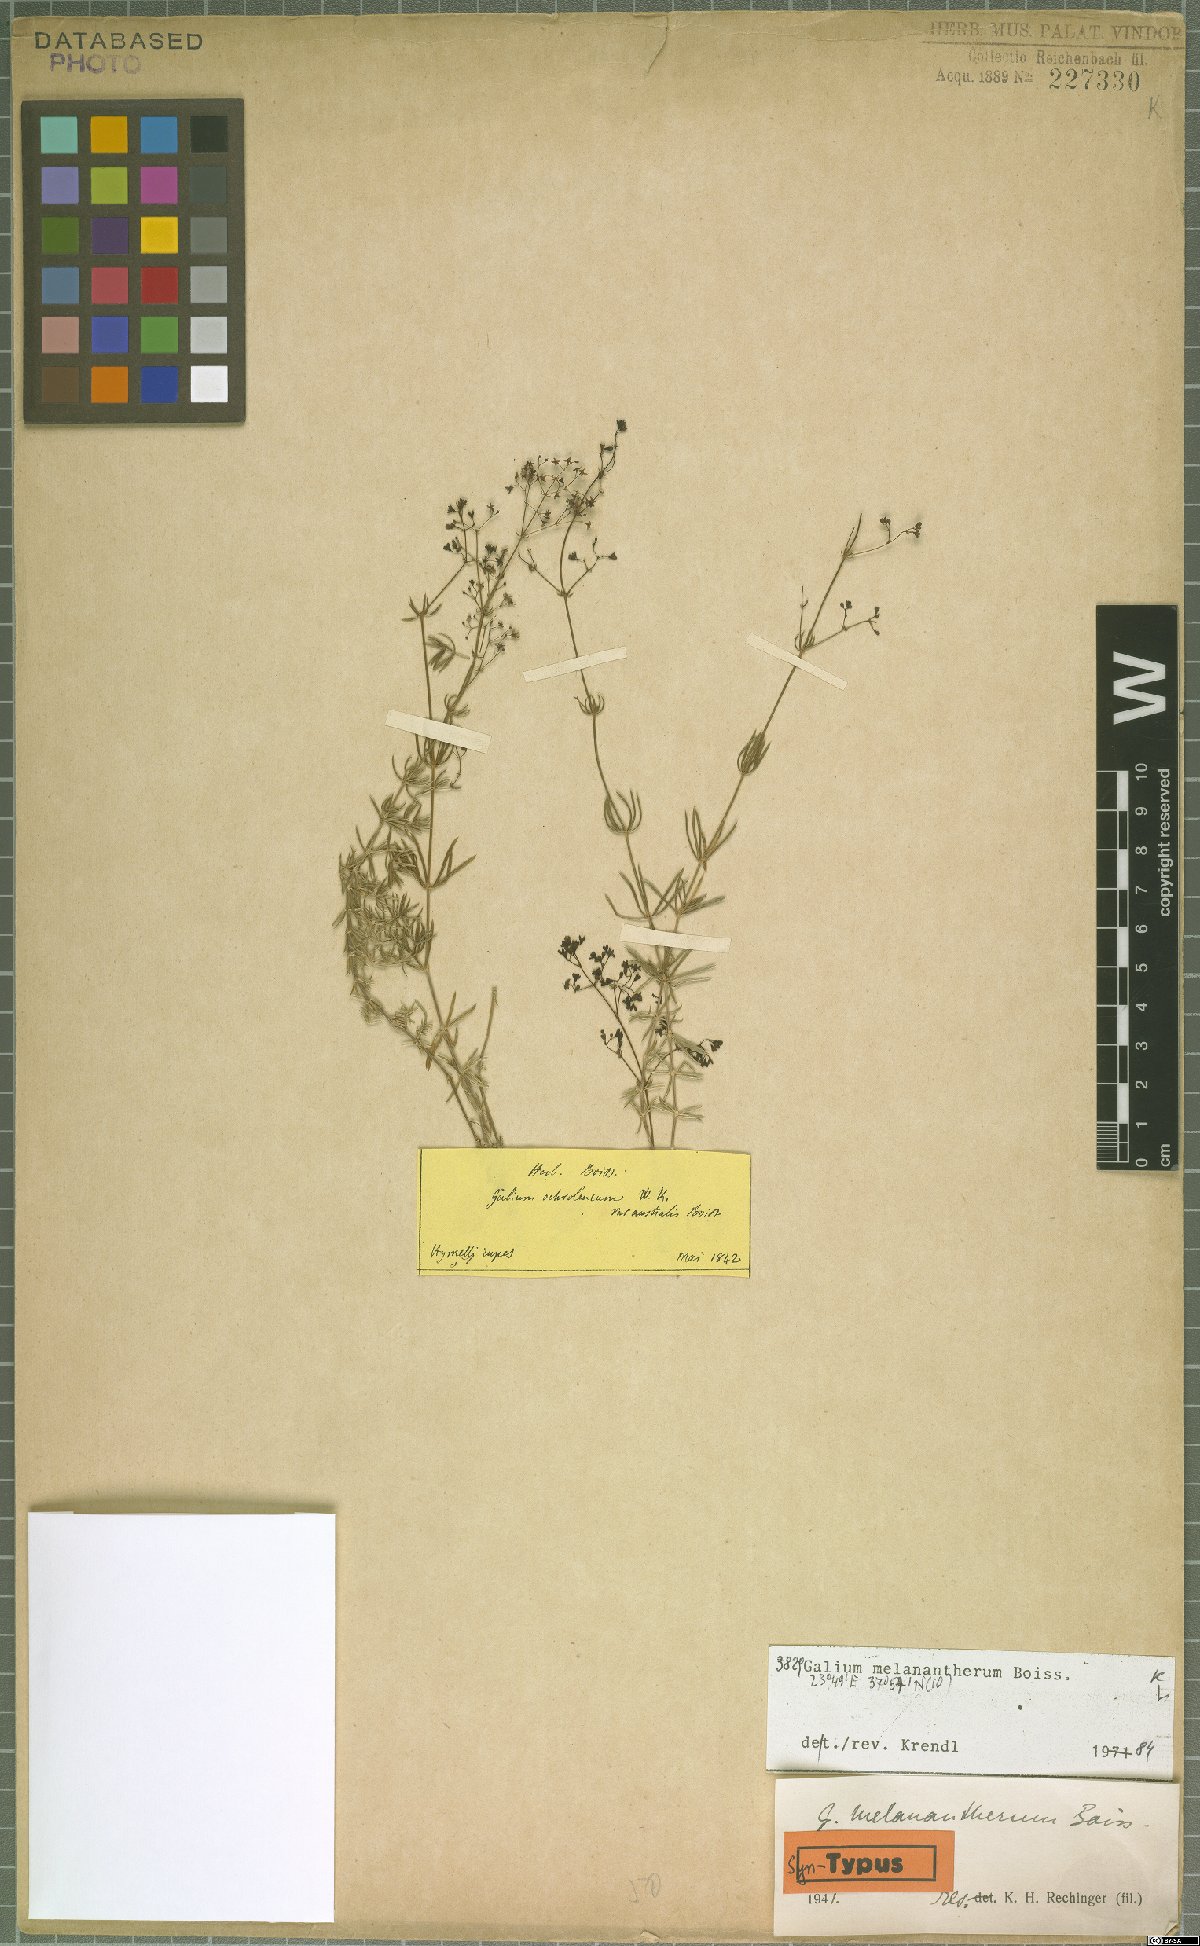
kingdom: Plantae
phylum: Tracheophyta
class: Magnoliopsida
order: Gentianales
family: Rubiaceae
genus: Galium
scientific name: Galium melanantherum
